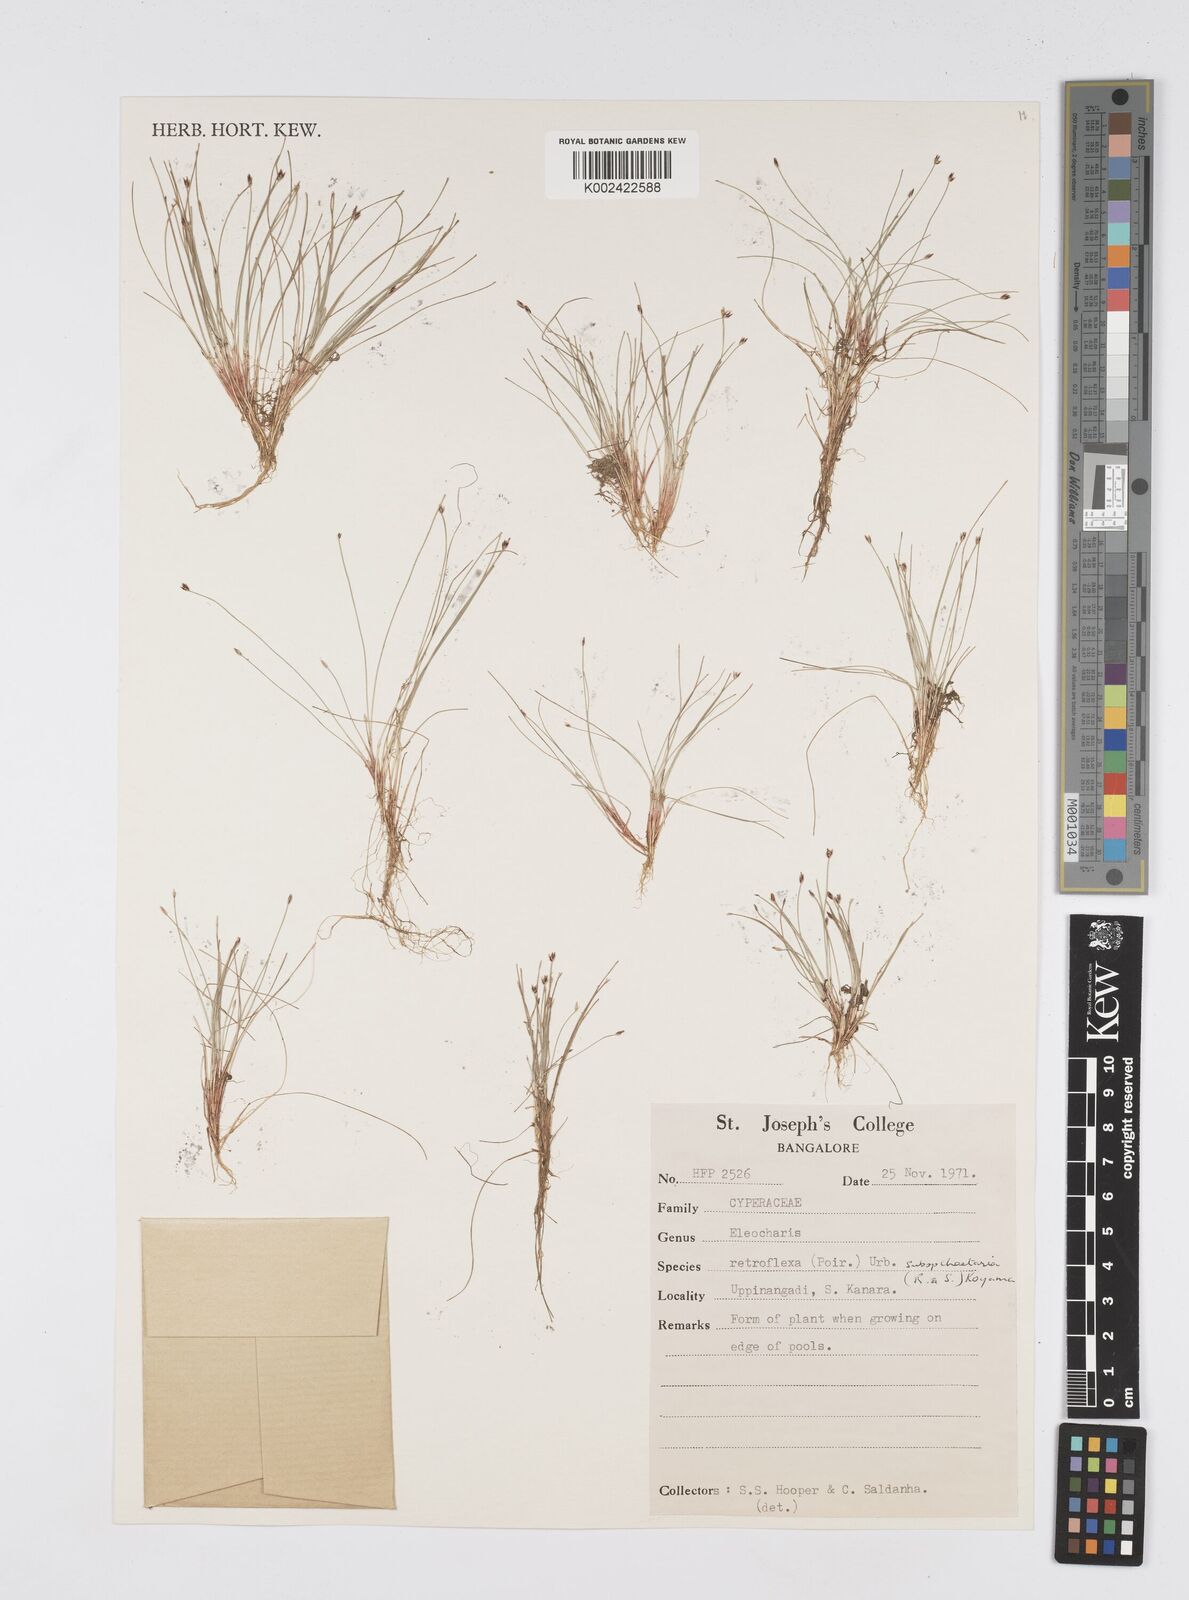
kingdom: Plantae
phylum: Tracheophyta
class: Liliopsida
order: Poales
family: Cyperaceae
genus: Eleocharis
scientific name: Eleocharis retroflexa
